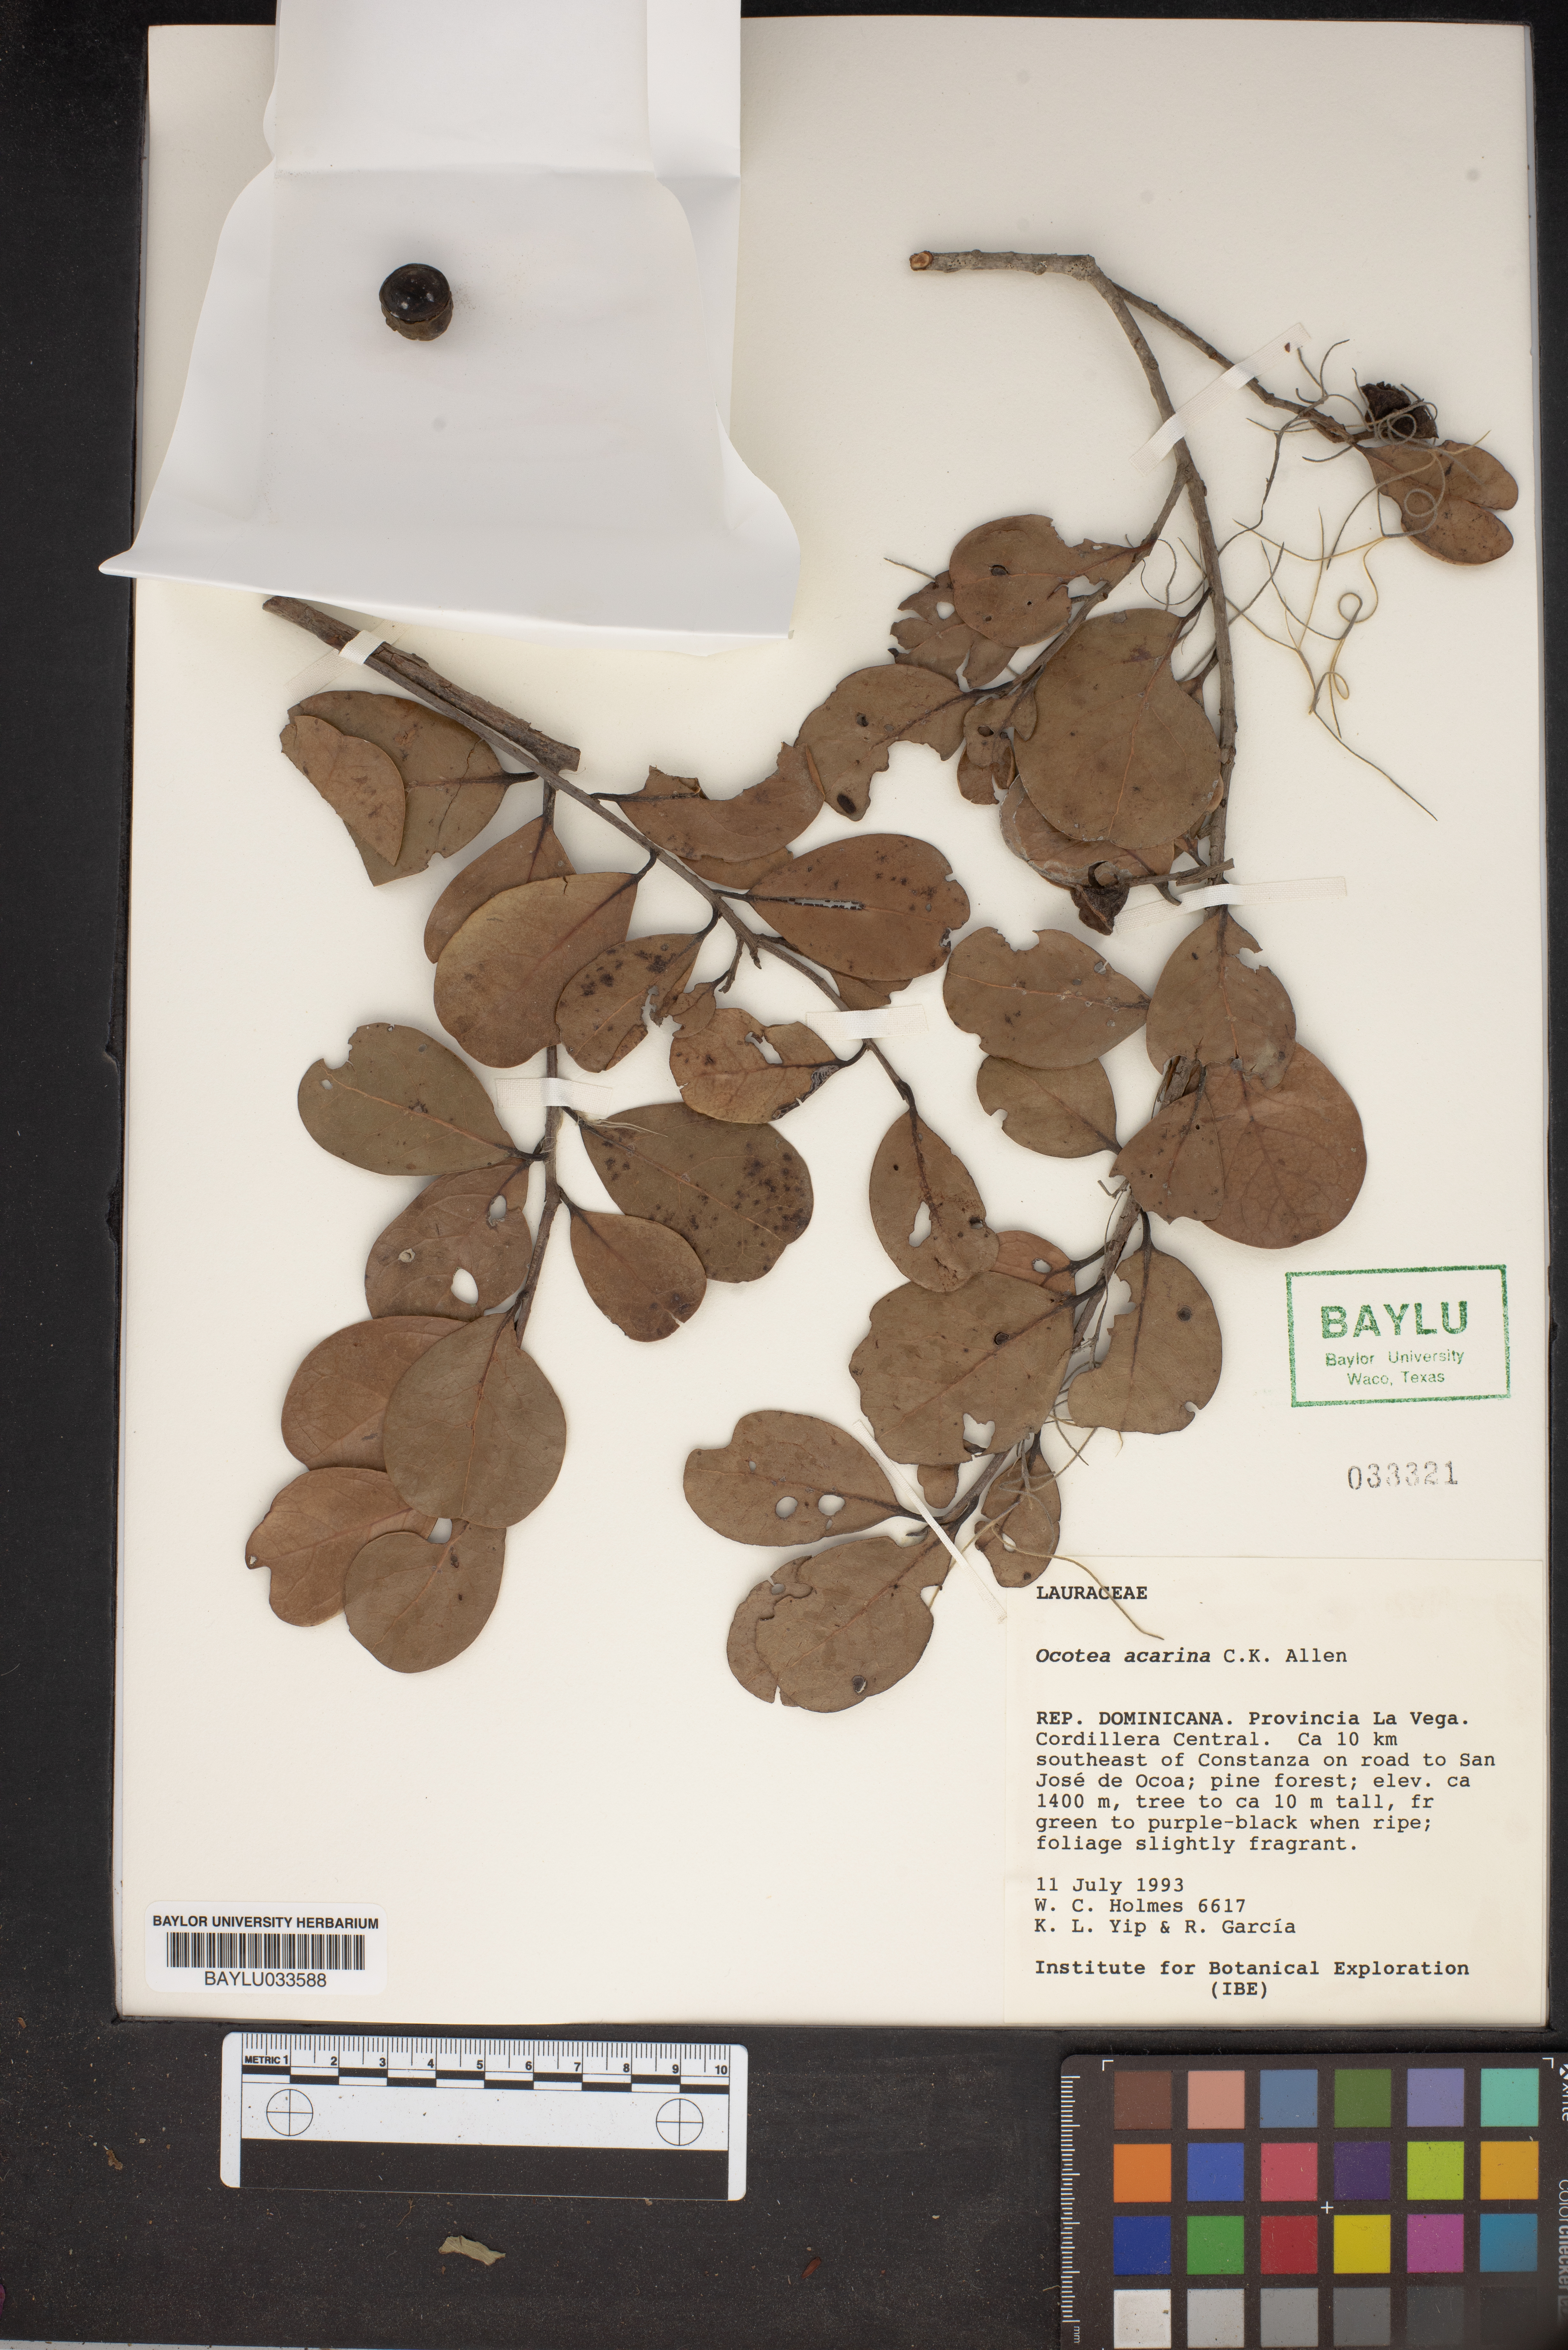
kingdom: Plantae
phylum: Tracheophyta
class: Magnoliopsida
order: Laurales
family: Lauraceae
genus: Ocotea
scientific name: Ocotea acarina
